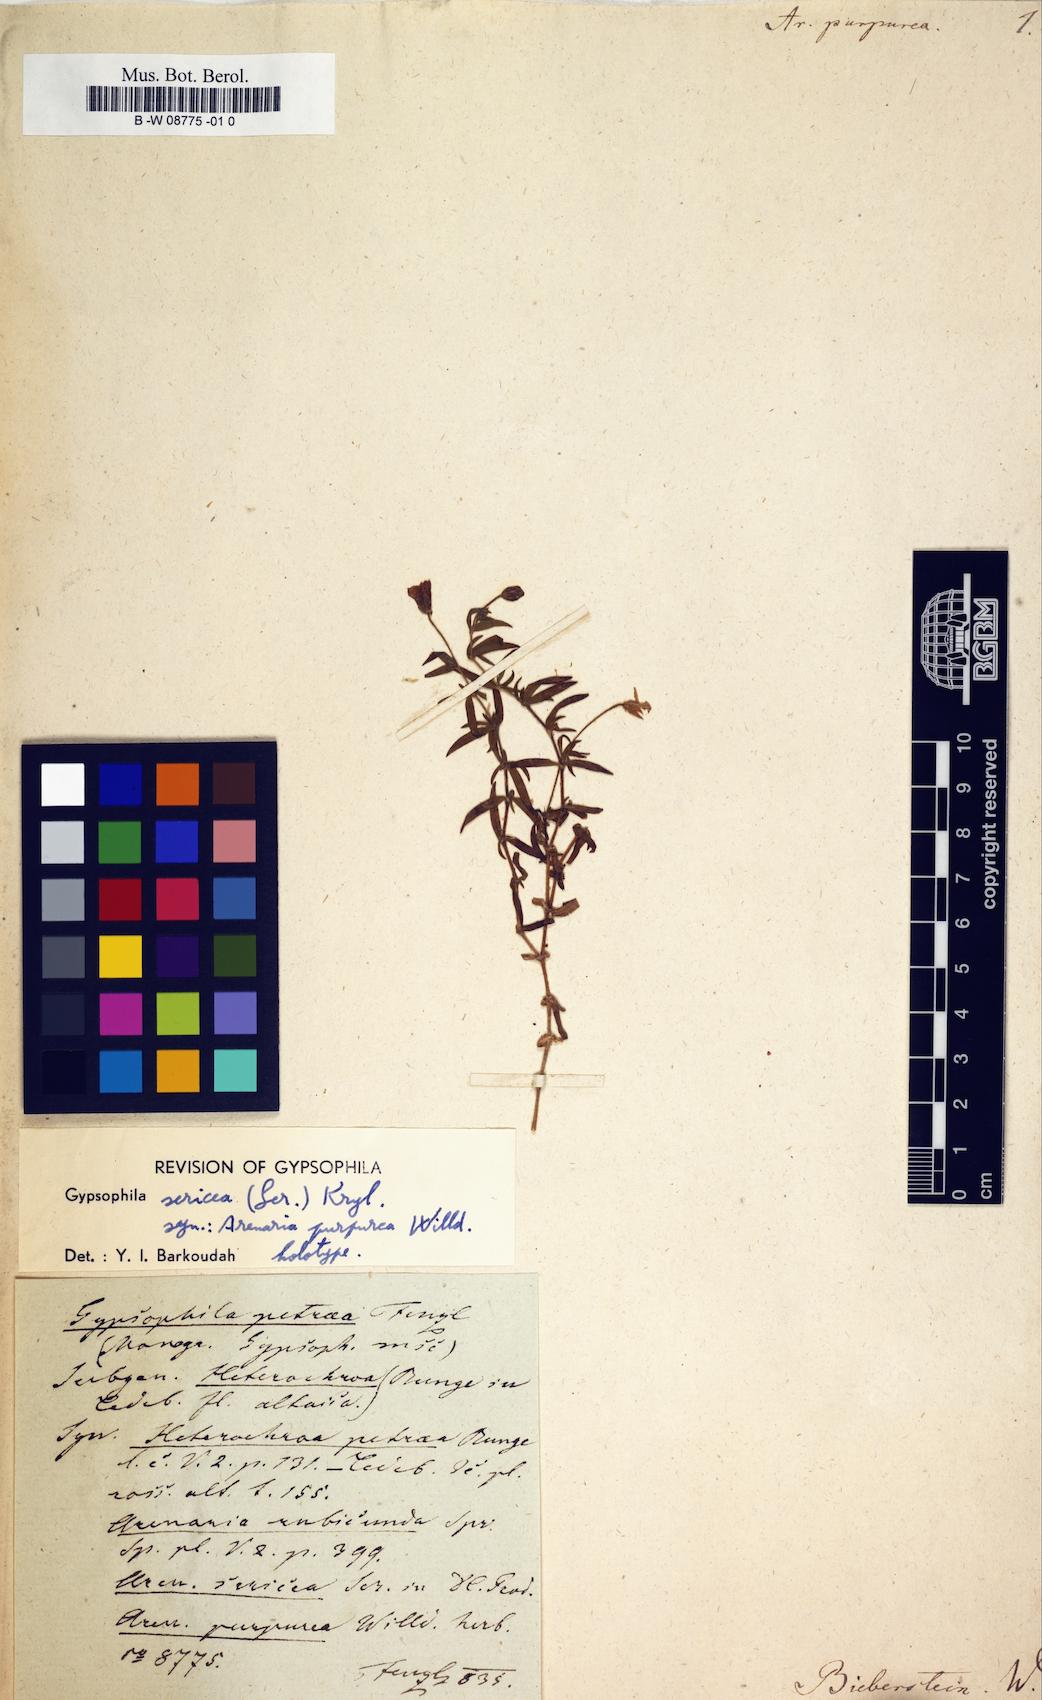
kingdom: Plantae
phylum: Tracheophyta
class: Magnoliopsida
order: Caryophyllales
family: Caryophyllaceae
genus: Spergularia
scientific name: Spergularia purpurea
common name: Purple sandspurry
